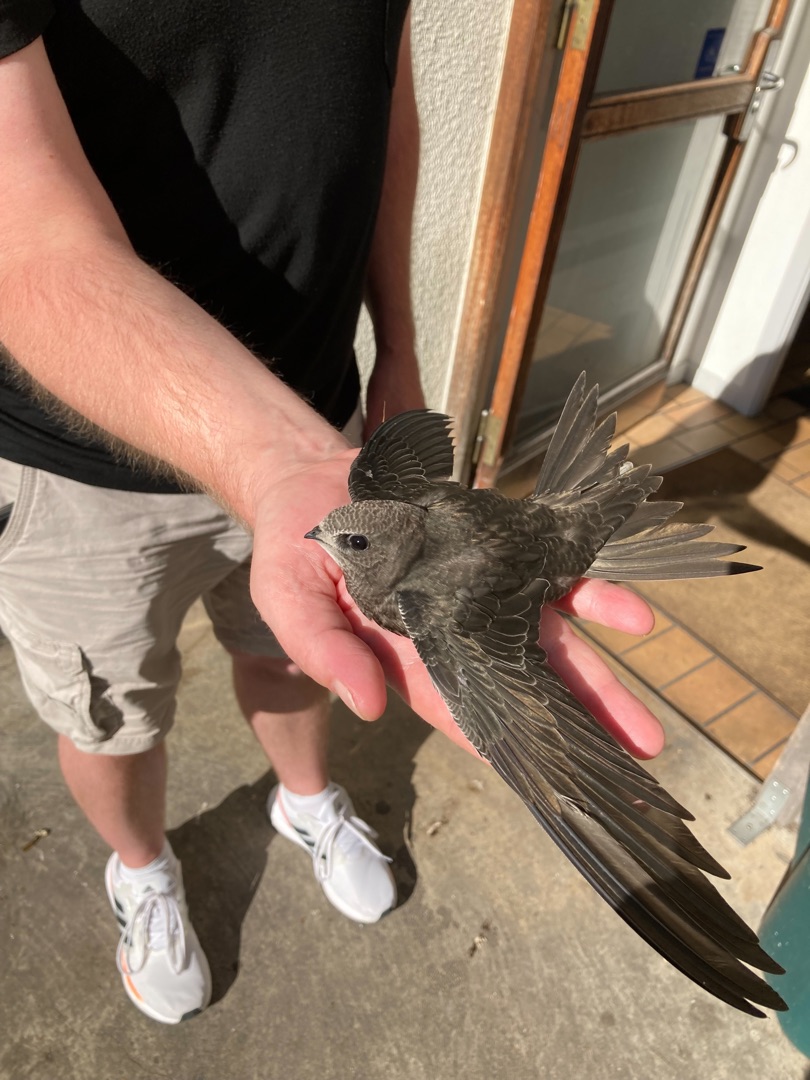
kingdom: Animalia
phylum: Chordata
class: Aves
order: Apodiformes
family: Apodidae
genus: Apus
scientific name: Apus apus
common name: Mursejler
